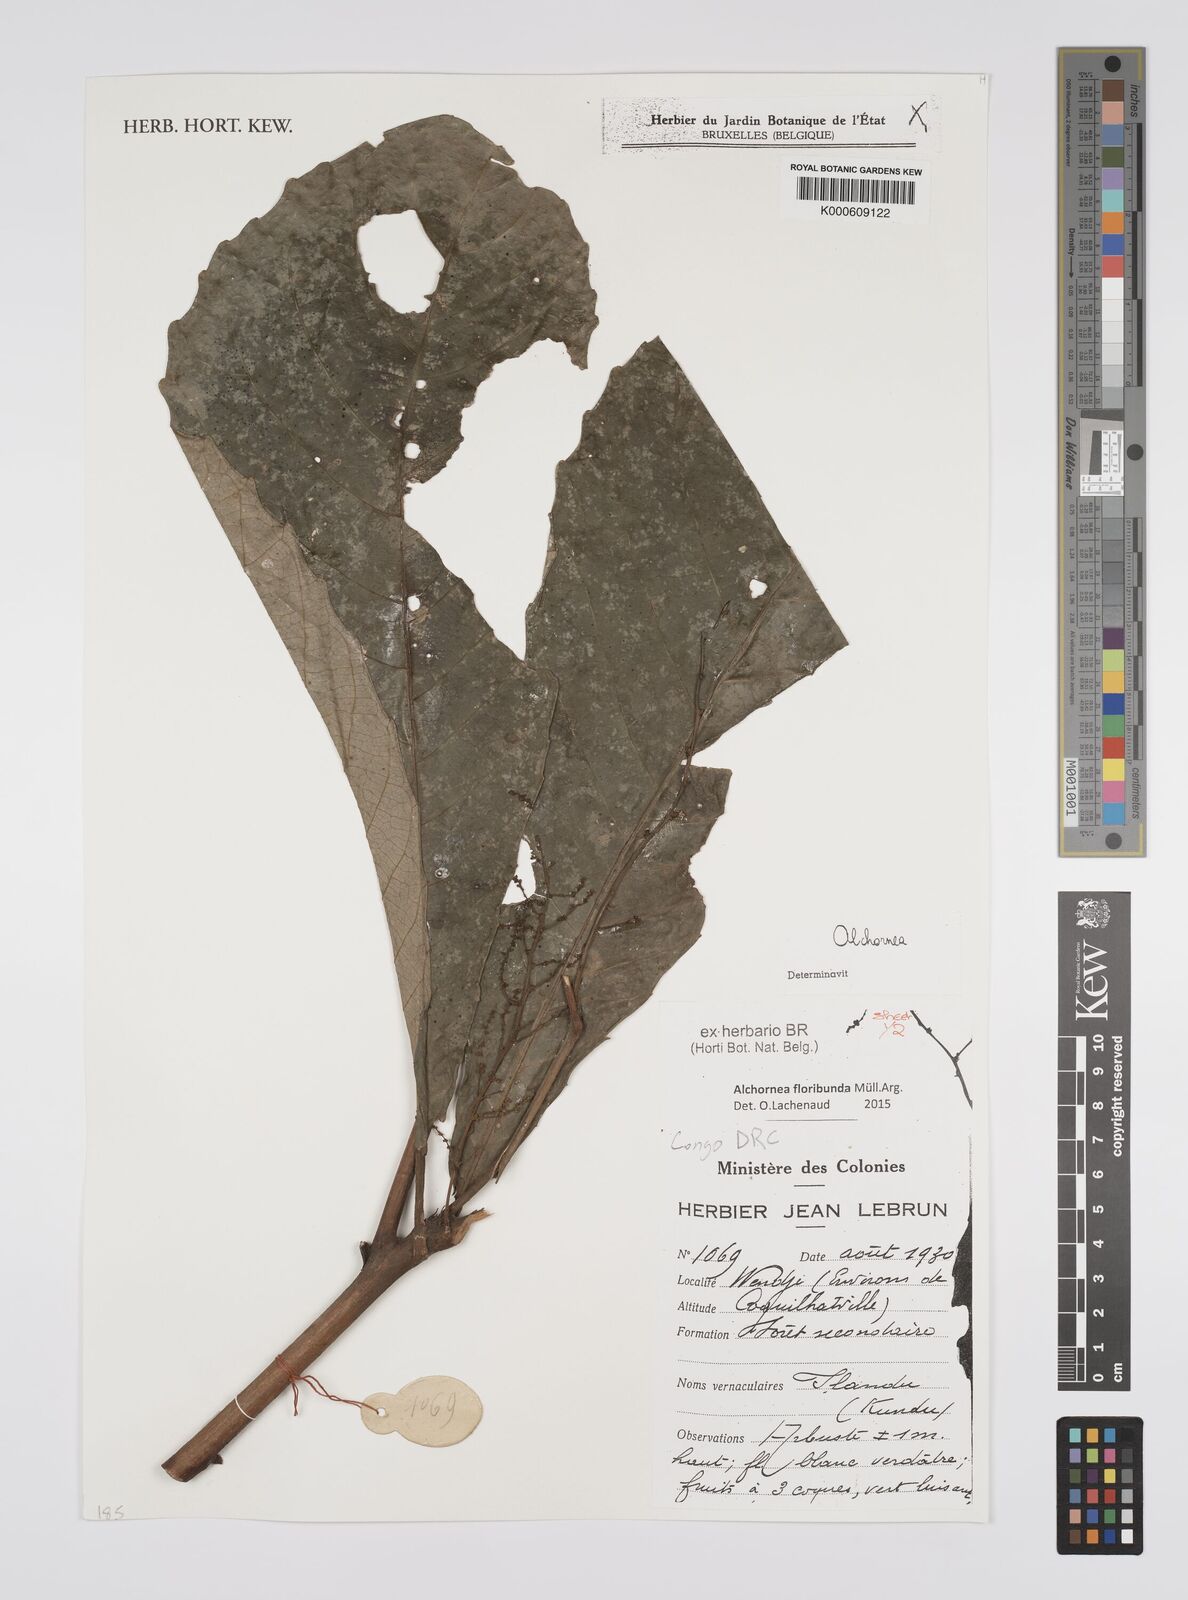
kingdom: Plantae
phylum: Tracheophyta
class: Magnoliopsida
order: Malpighiales
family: Euphorbiaceae
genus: Alchornea
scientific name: Alchornea
